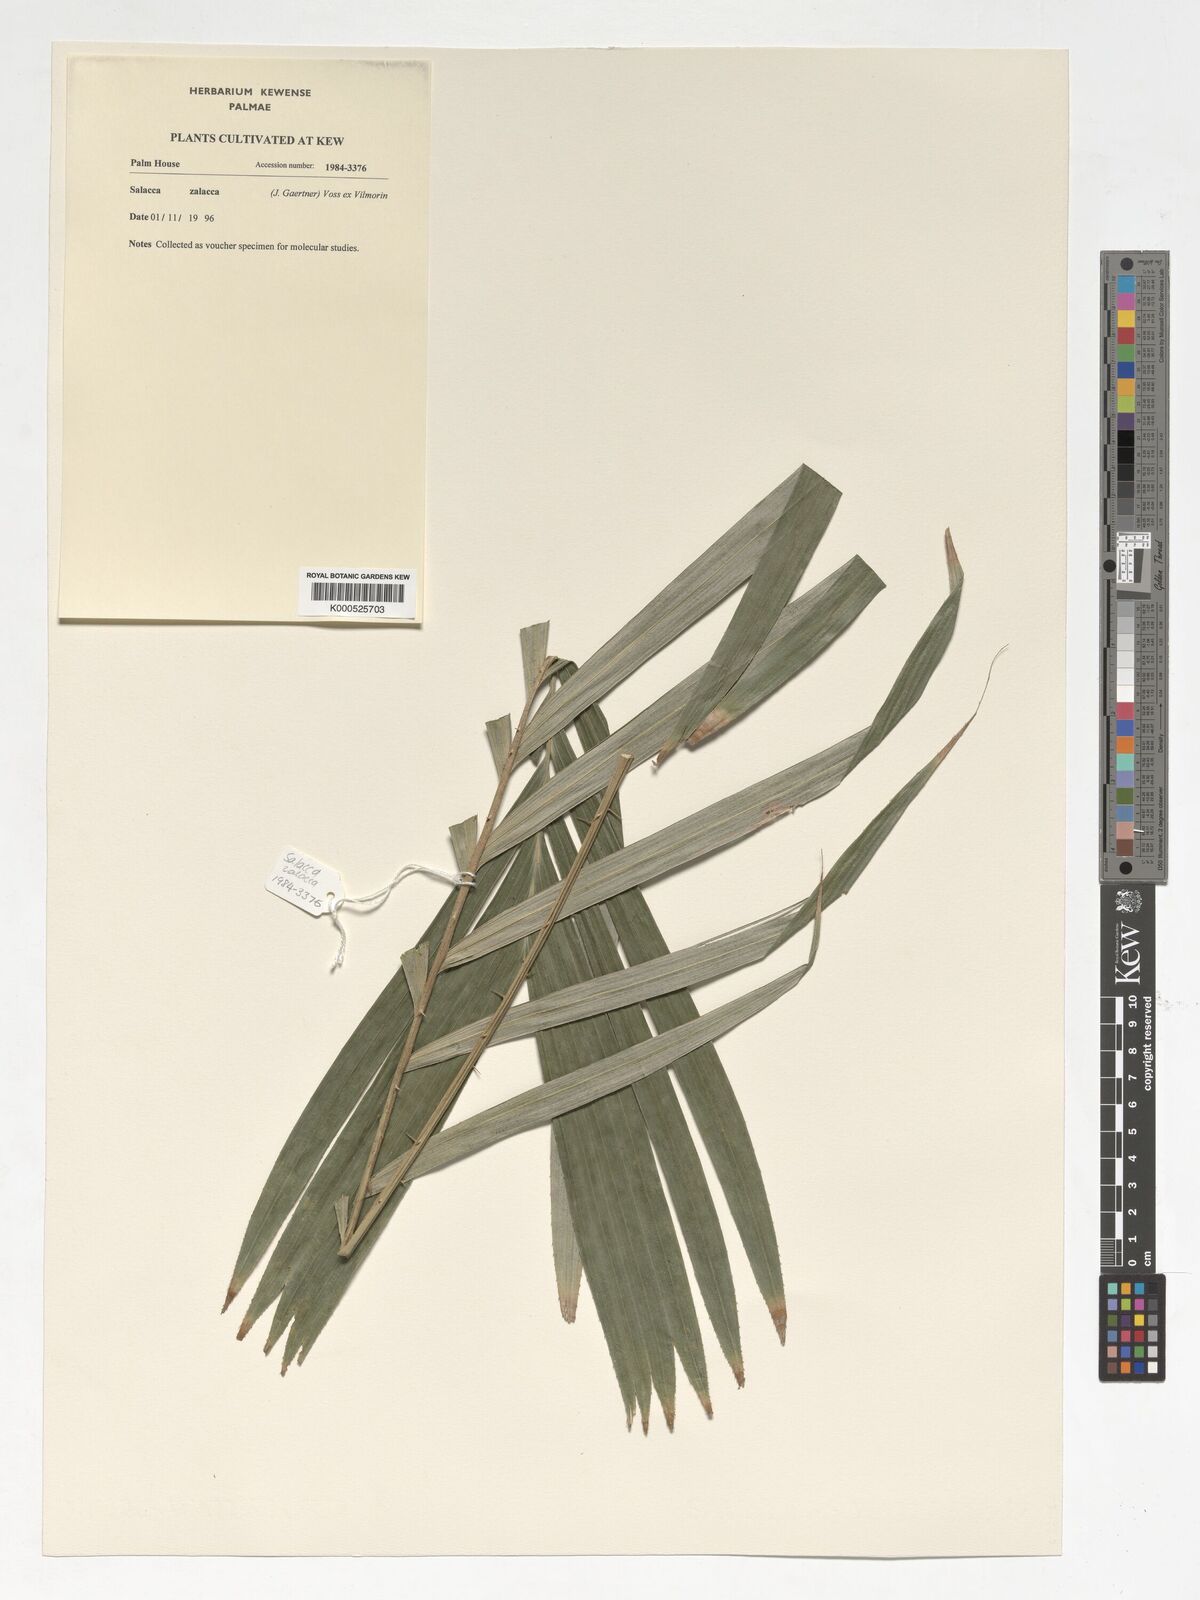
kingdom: Plantae
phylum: Tracheophyta
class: Liliopsida
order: Arecales
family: Arecaceae
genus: Salacca
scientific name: Salacca zalacca
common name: Salak
